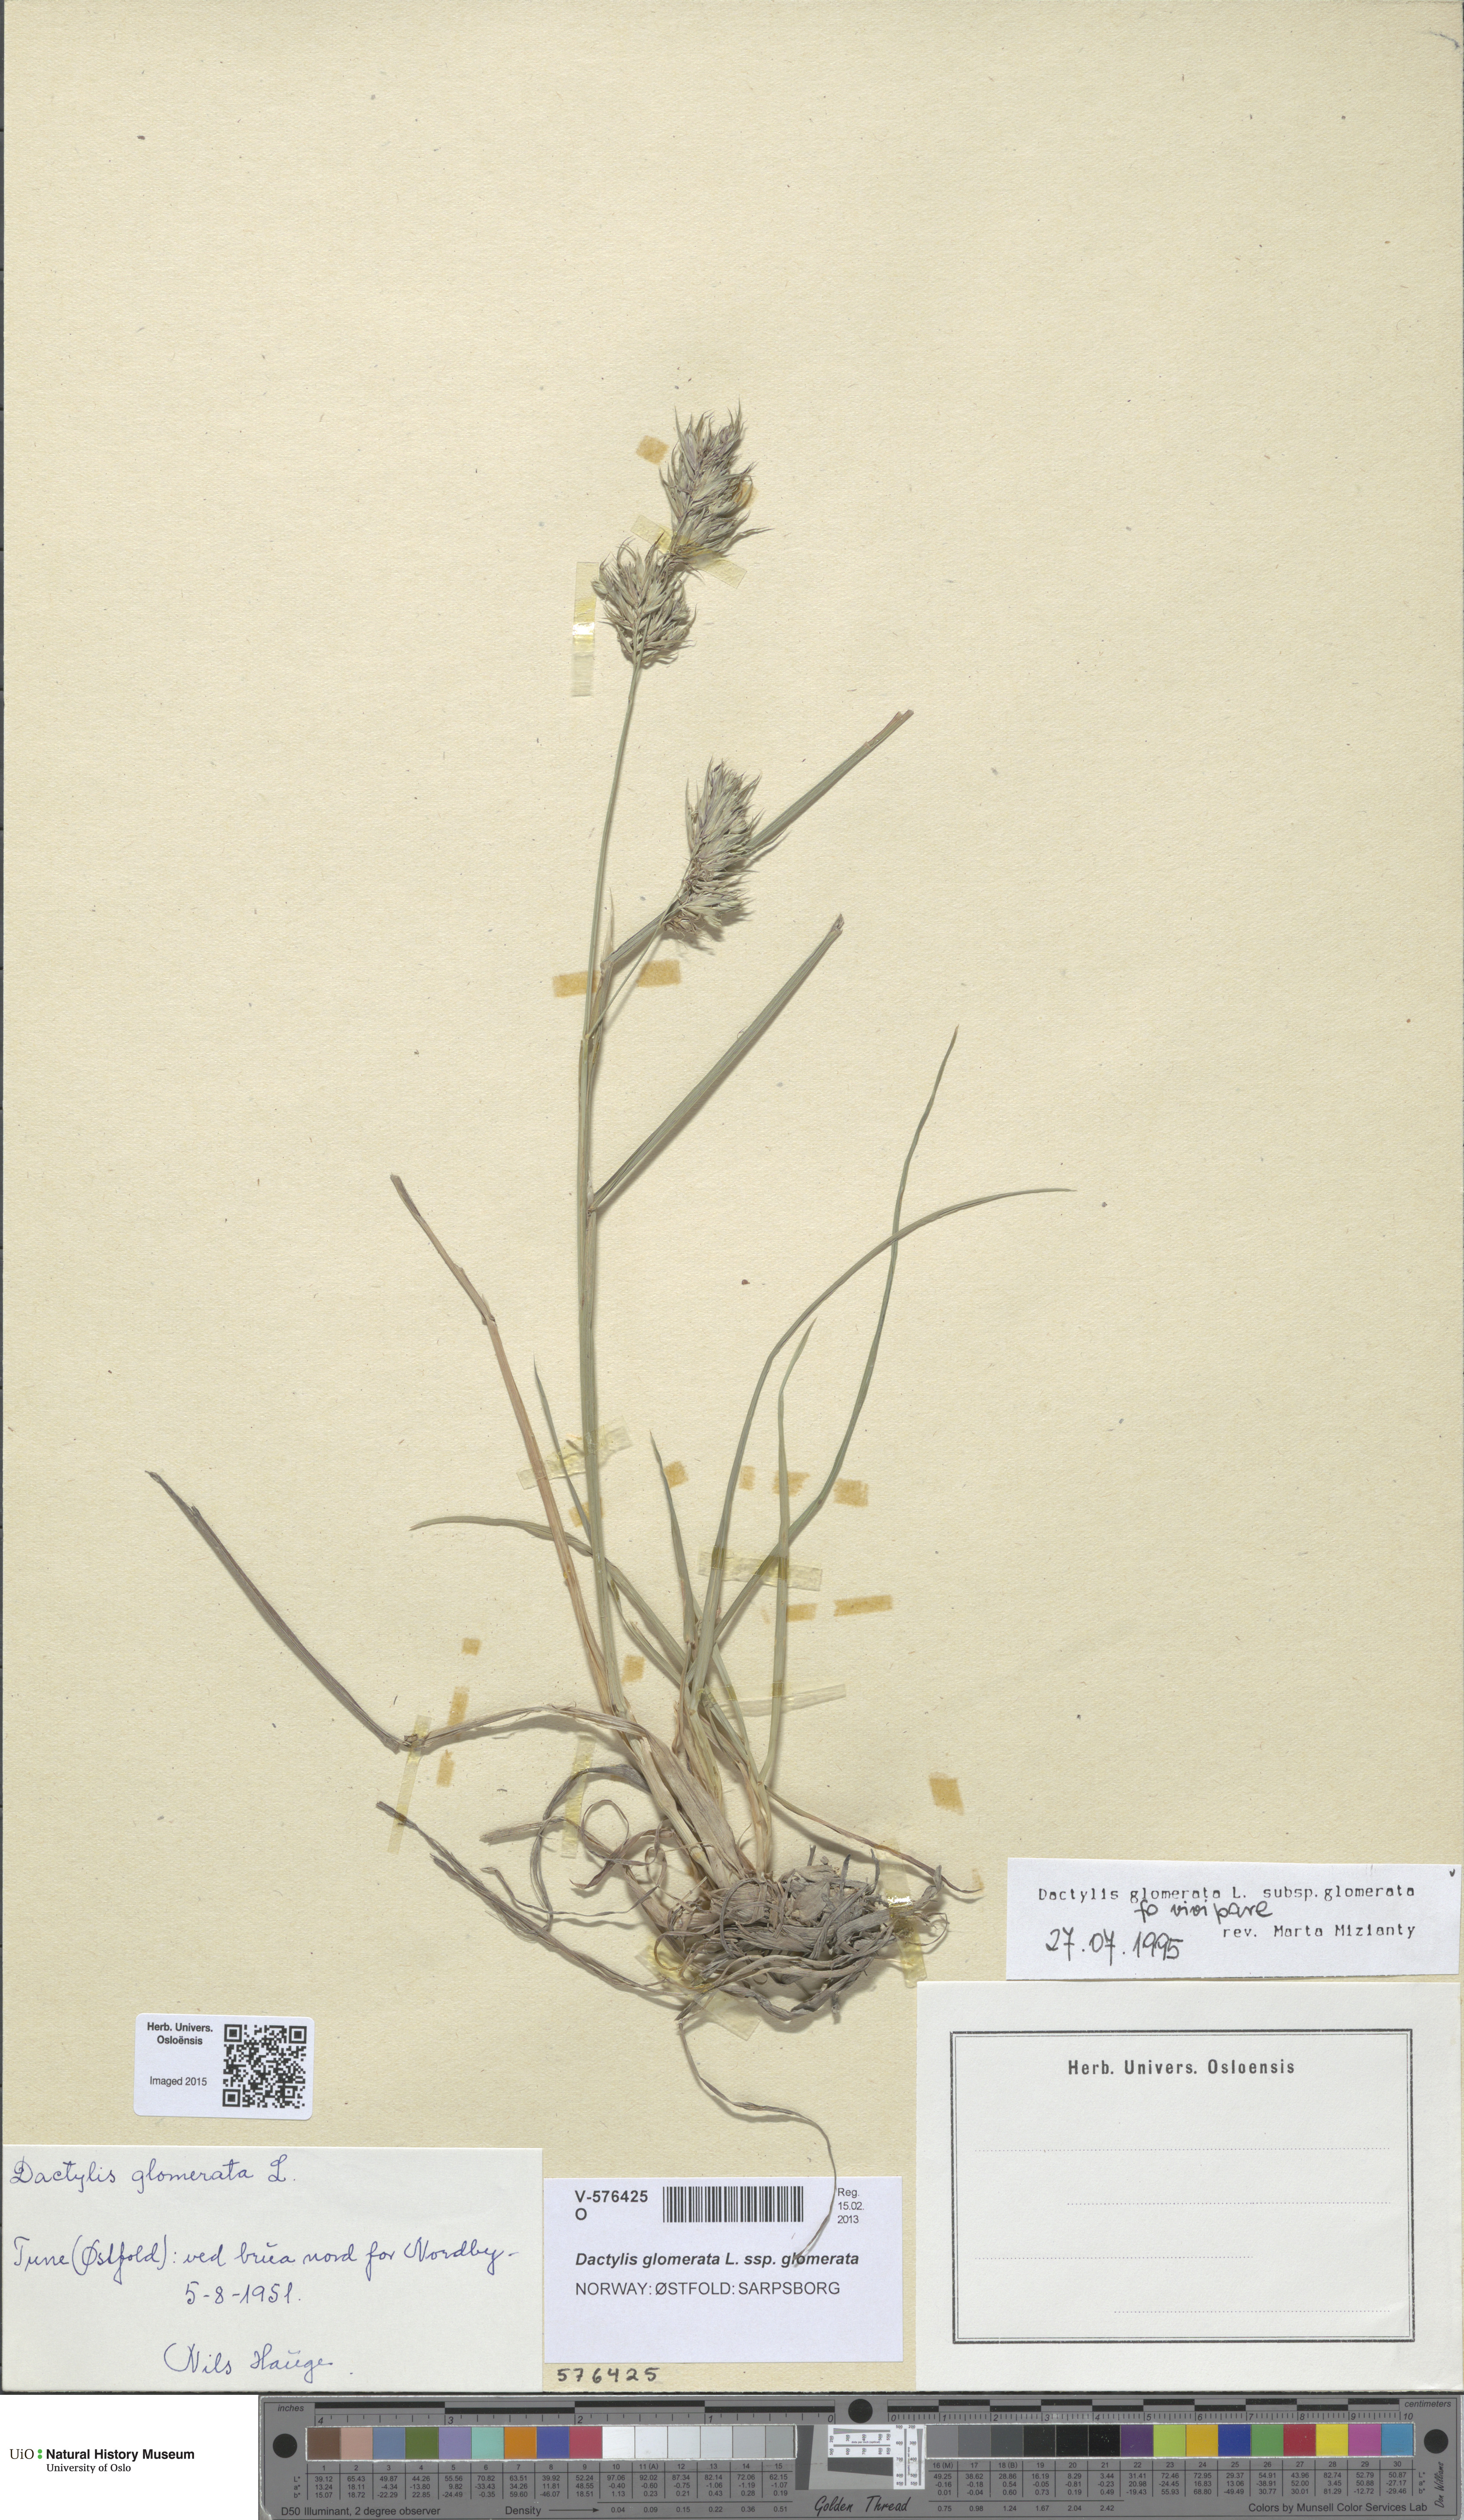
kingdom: Plantae
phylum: Tracheophyta
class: Liliopsida
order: Poales
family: Poaceae
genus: Dactylis
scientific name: Dactylis glomerata
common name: Orchardgrass
